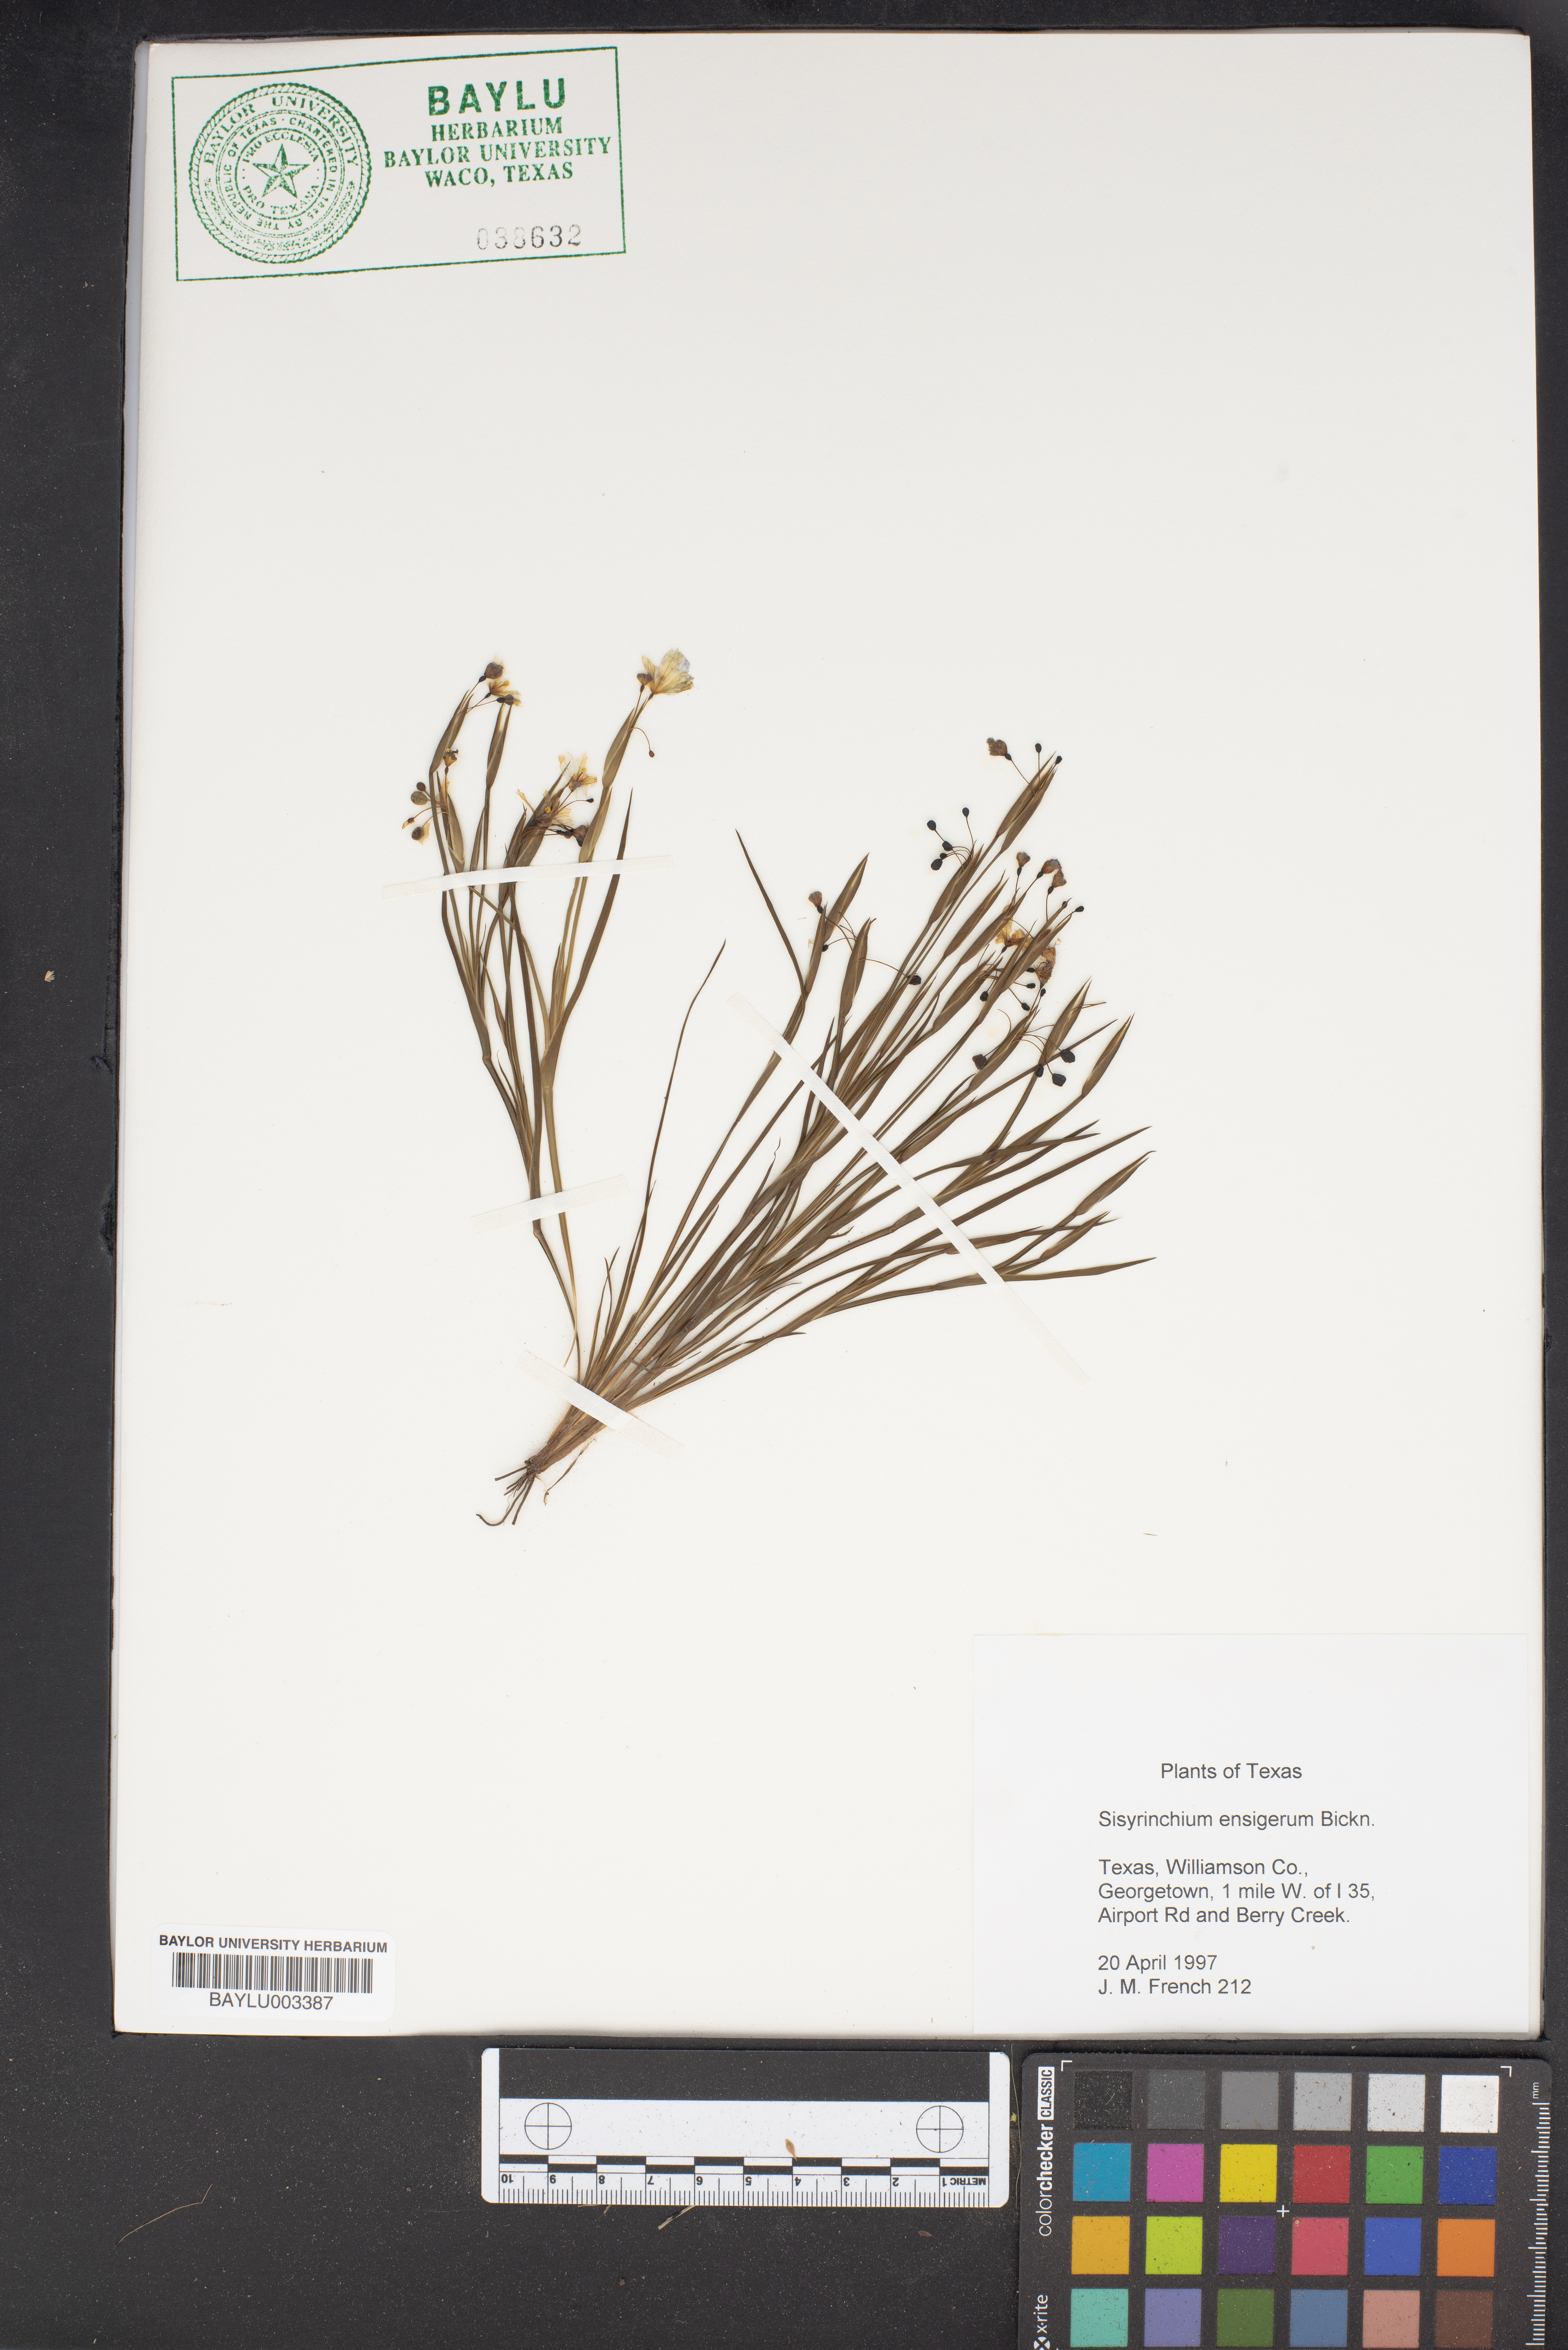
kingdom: Plantae
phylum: Tracheophyta
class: Liliopsida
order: Asparagales
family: Iridaceae
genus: Sisyrinchium
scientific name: Sisyrinchium ensigerum
